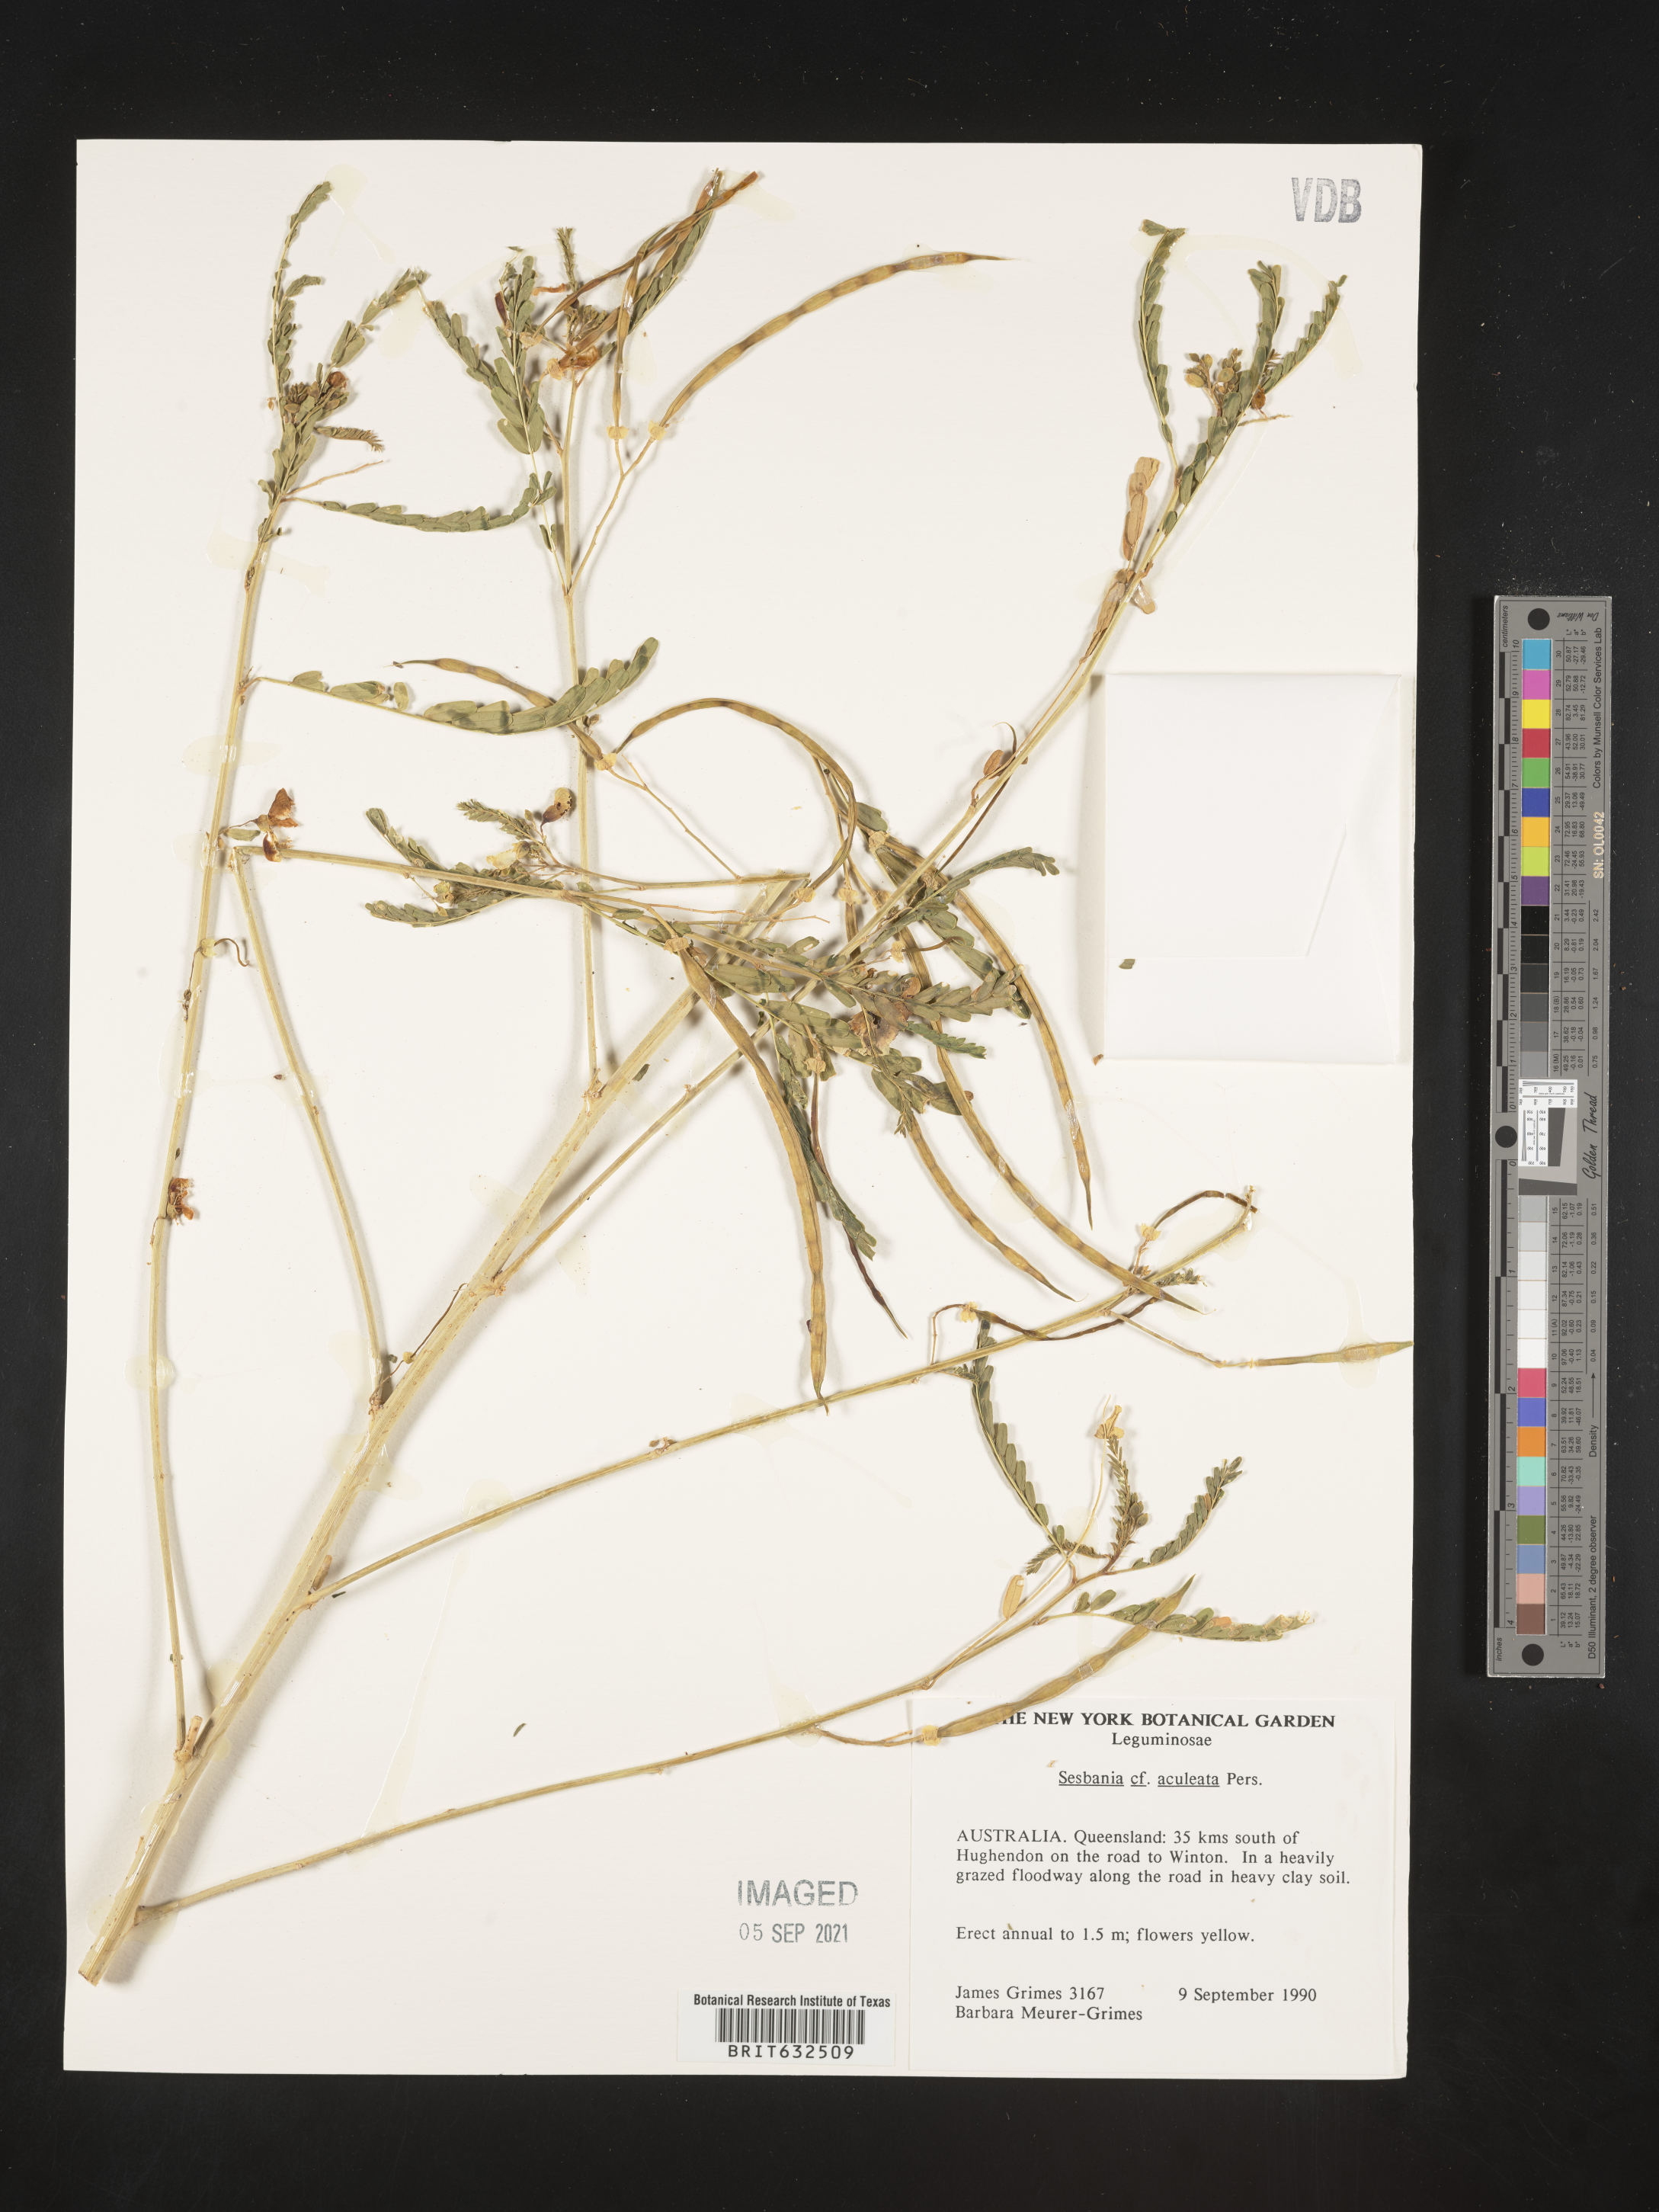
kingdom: Plantae
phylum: Tracheophyta
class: Magnoliopsida
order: Fabales
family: Fabaceae
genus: Sesbania
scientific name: Sesbania
